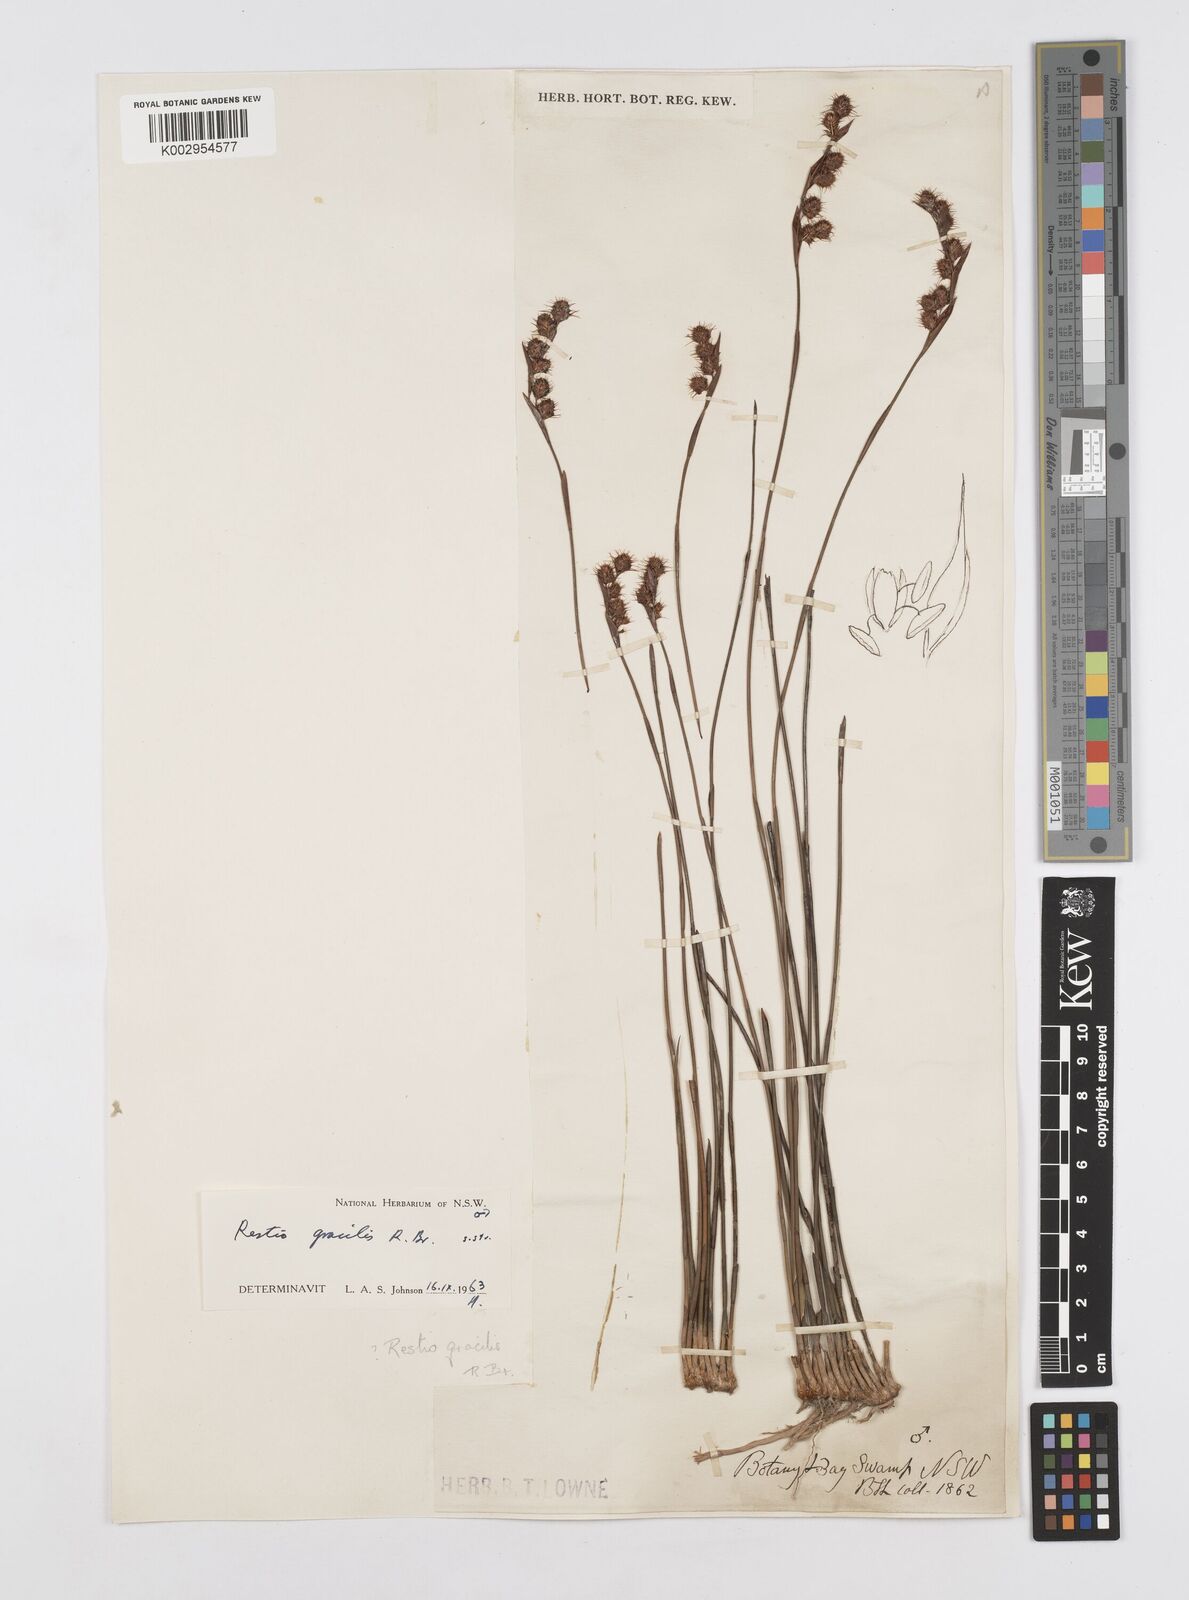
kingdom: Plantae
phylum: Tracheophyta
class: Liliopsida
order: Poales
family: Restionaceae
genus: Baloskion
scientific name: Baloskion gracile
